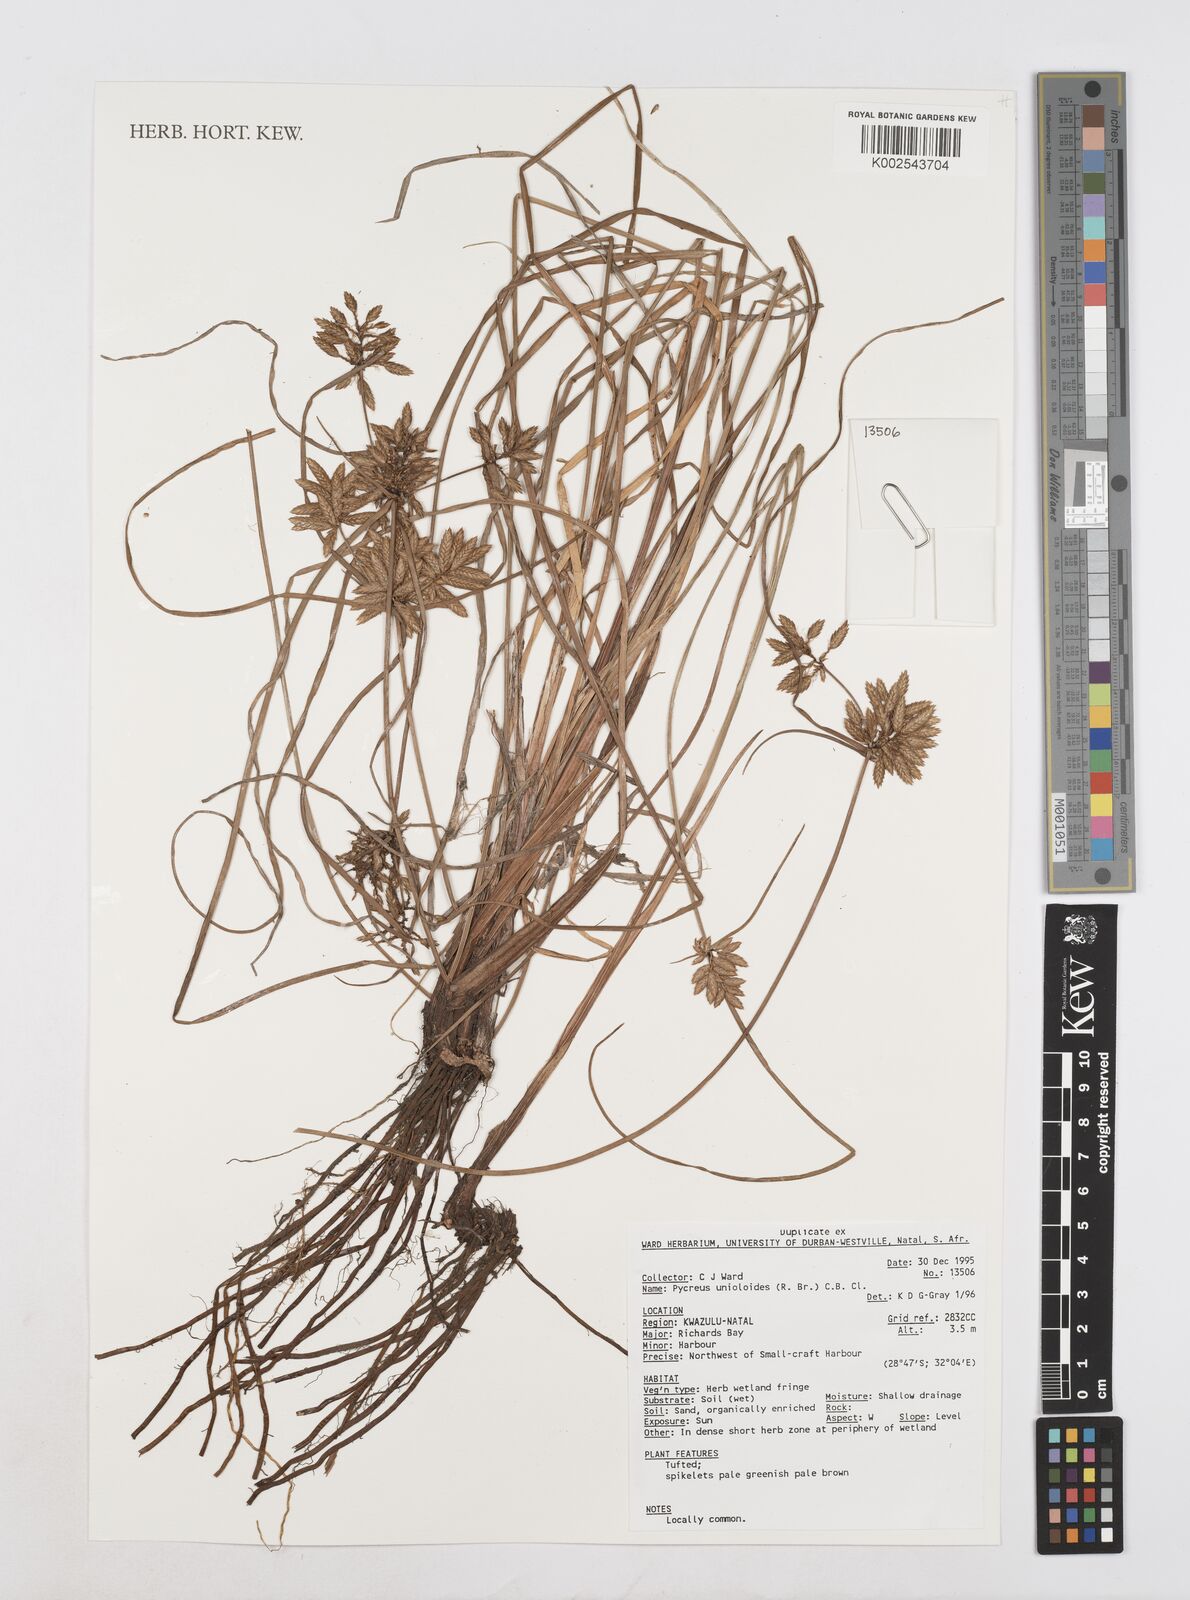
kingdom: Plantae
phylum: Tracheophyta
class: Liliopsida
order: Poales
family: Cyperaceae
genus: Cyperus
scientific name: Cyperus unioloides
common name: Uniola flatsedge
